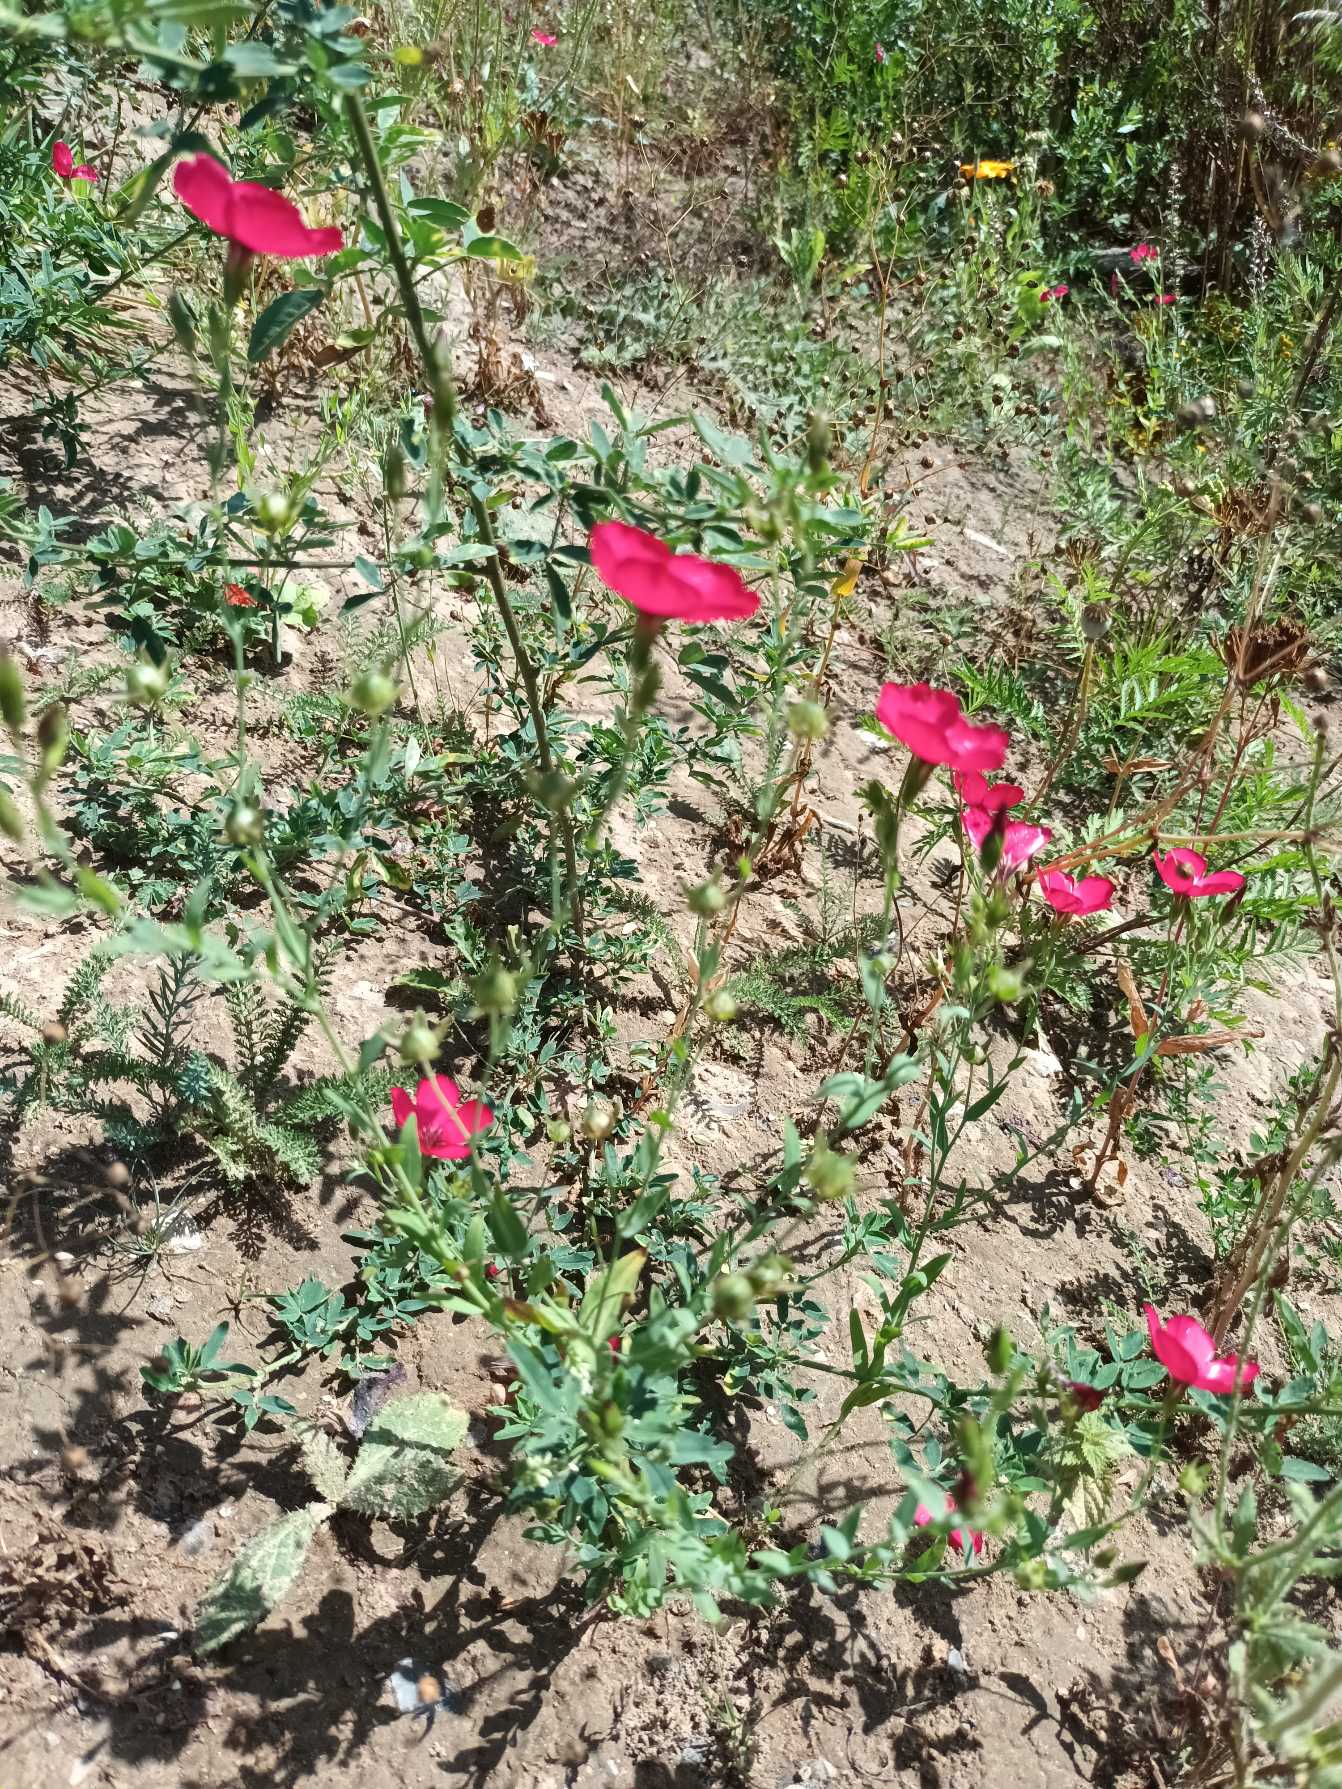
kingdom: Plantae
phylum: Tracheophyta
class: Magnoliopsida
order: Malpighiales
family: Linaceae
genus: Linum
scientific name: Linum grandiflorum
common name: Rød hør
